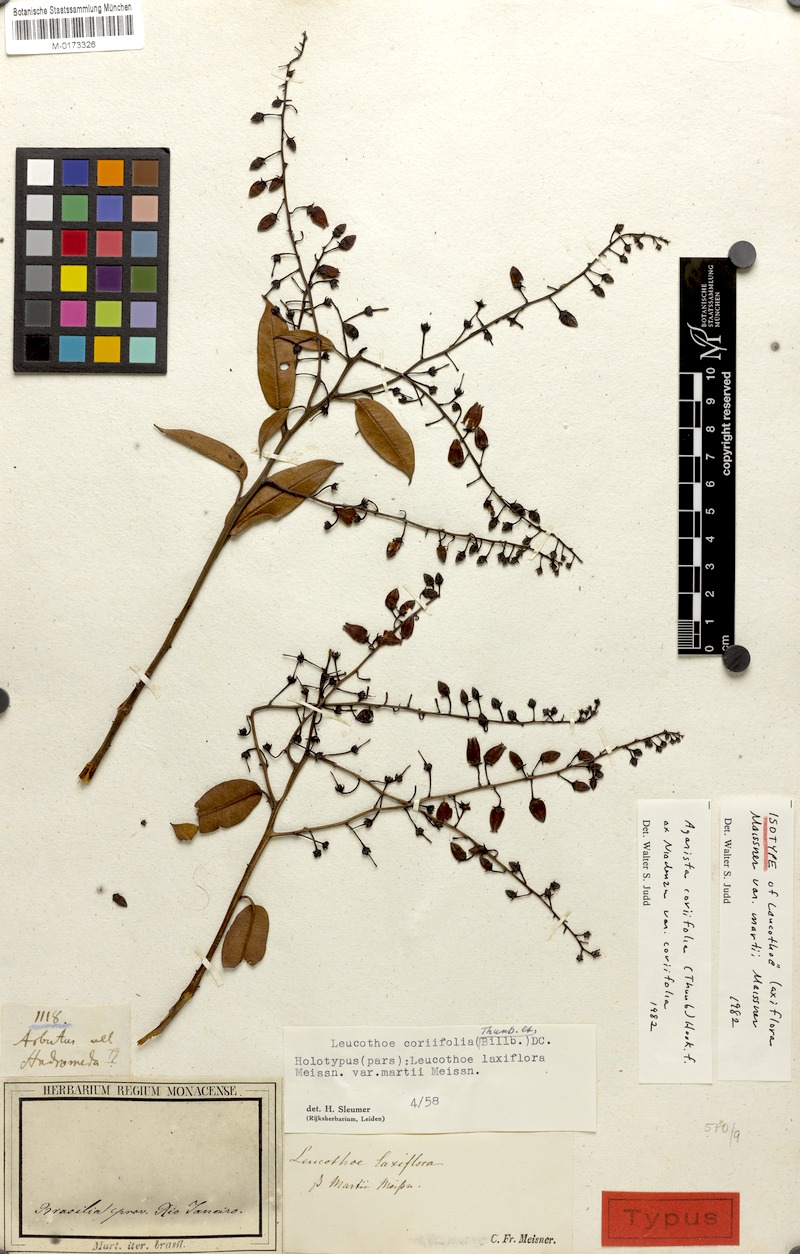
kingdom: Plantae
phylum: Tracheophyta
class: Magnoliopsida
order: Ericales
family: Ericaceae
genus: Agarista
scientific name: Agarista coriifolia
